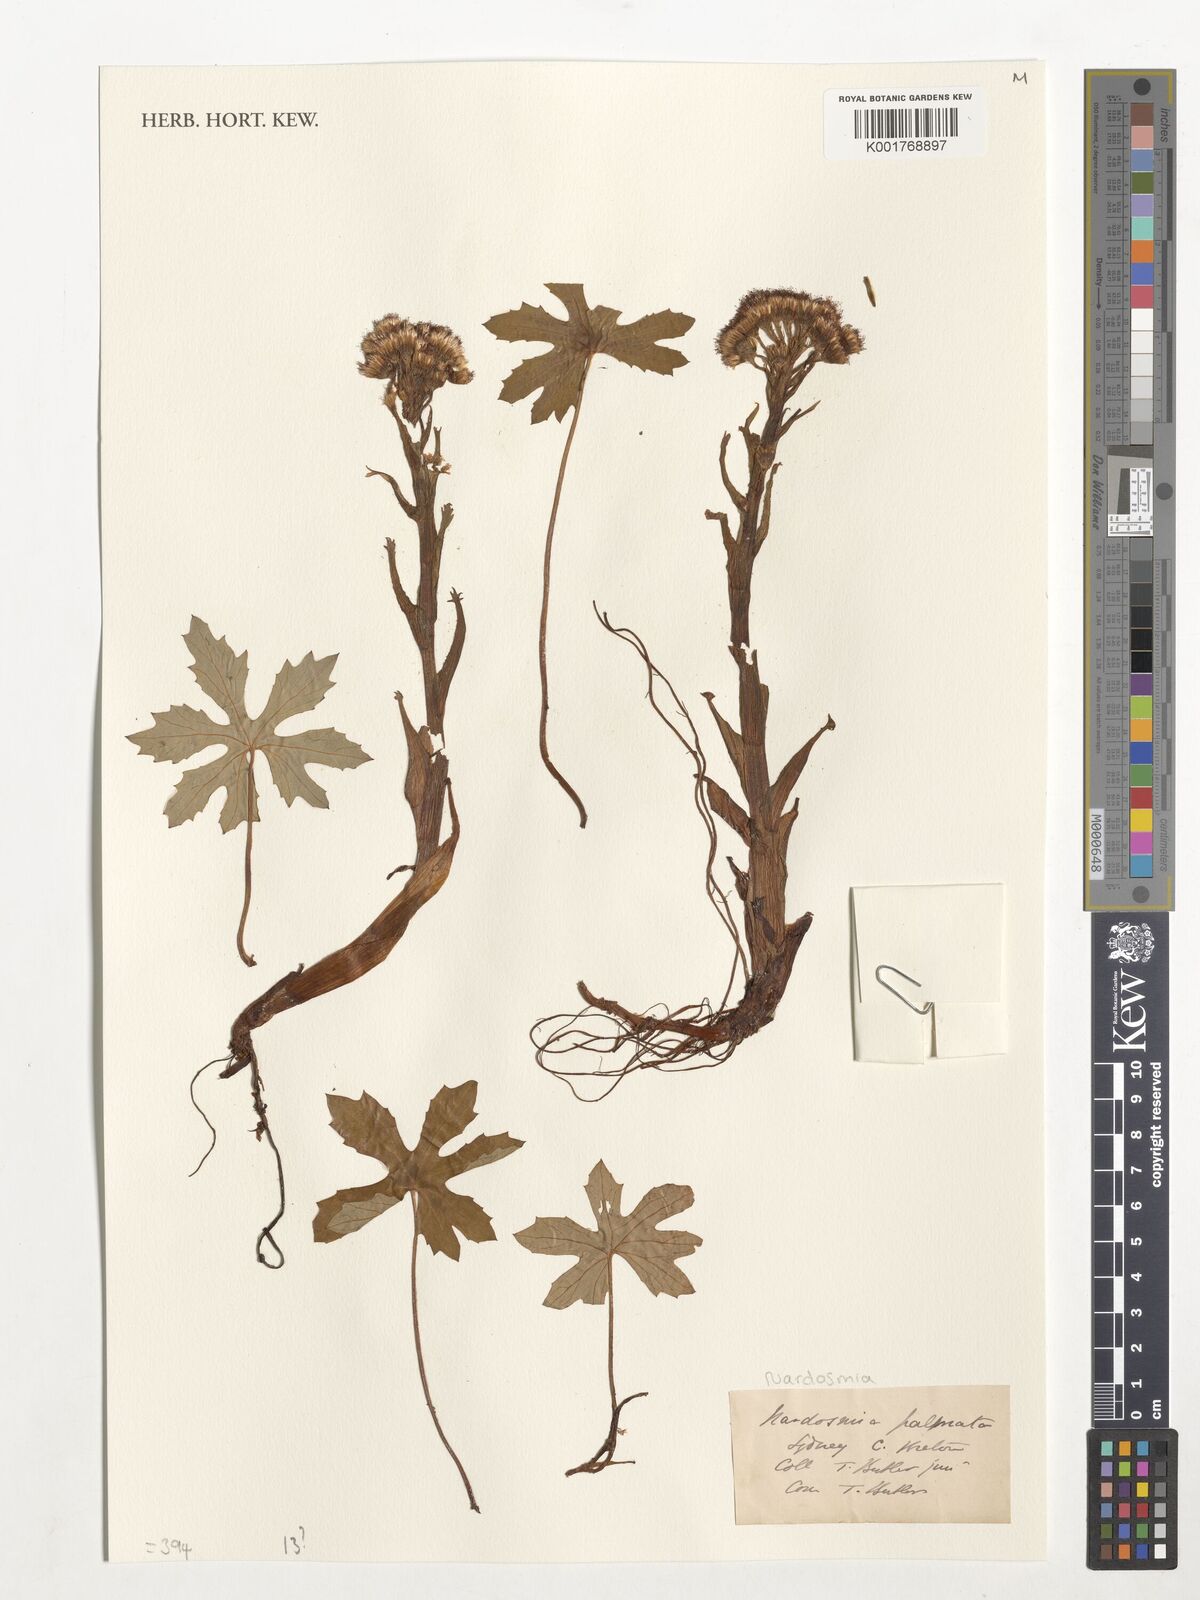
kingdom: Plantae
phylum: Tracheophyta
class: Magnoliopsida
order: Asterales
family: Asteraceae
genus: Petasites
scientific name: Petasites frigidus
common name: Arctic butterbur
